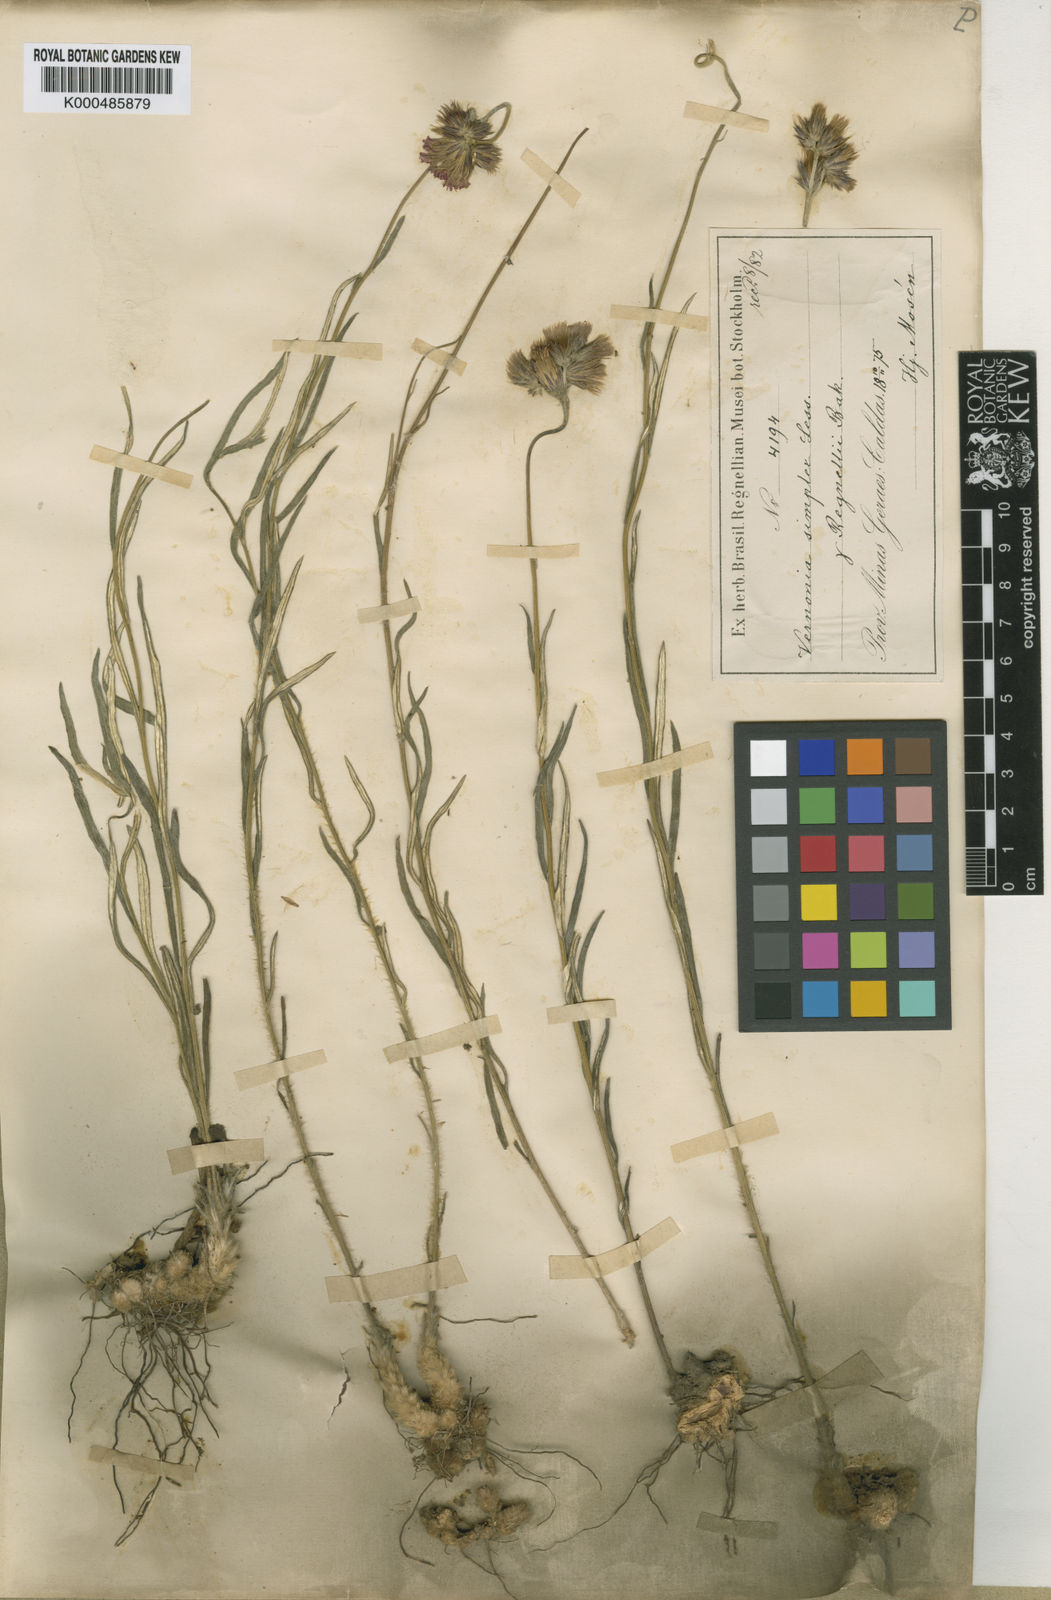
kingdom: Plantae
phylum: Tracheophyta
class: Magnoliopsida
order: Asterales
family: Asteraceae
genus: Chrysolaena
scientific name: Chrysolaena simplex
